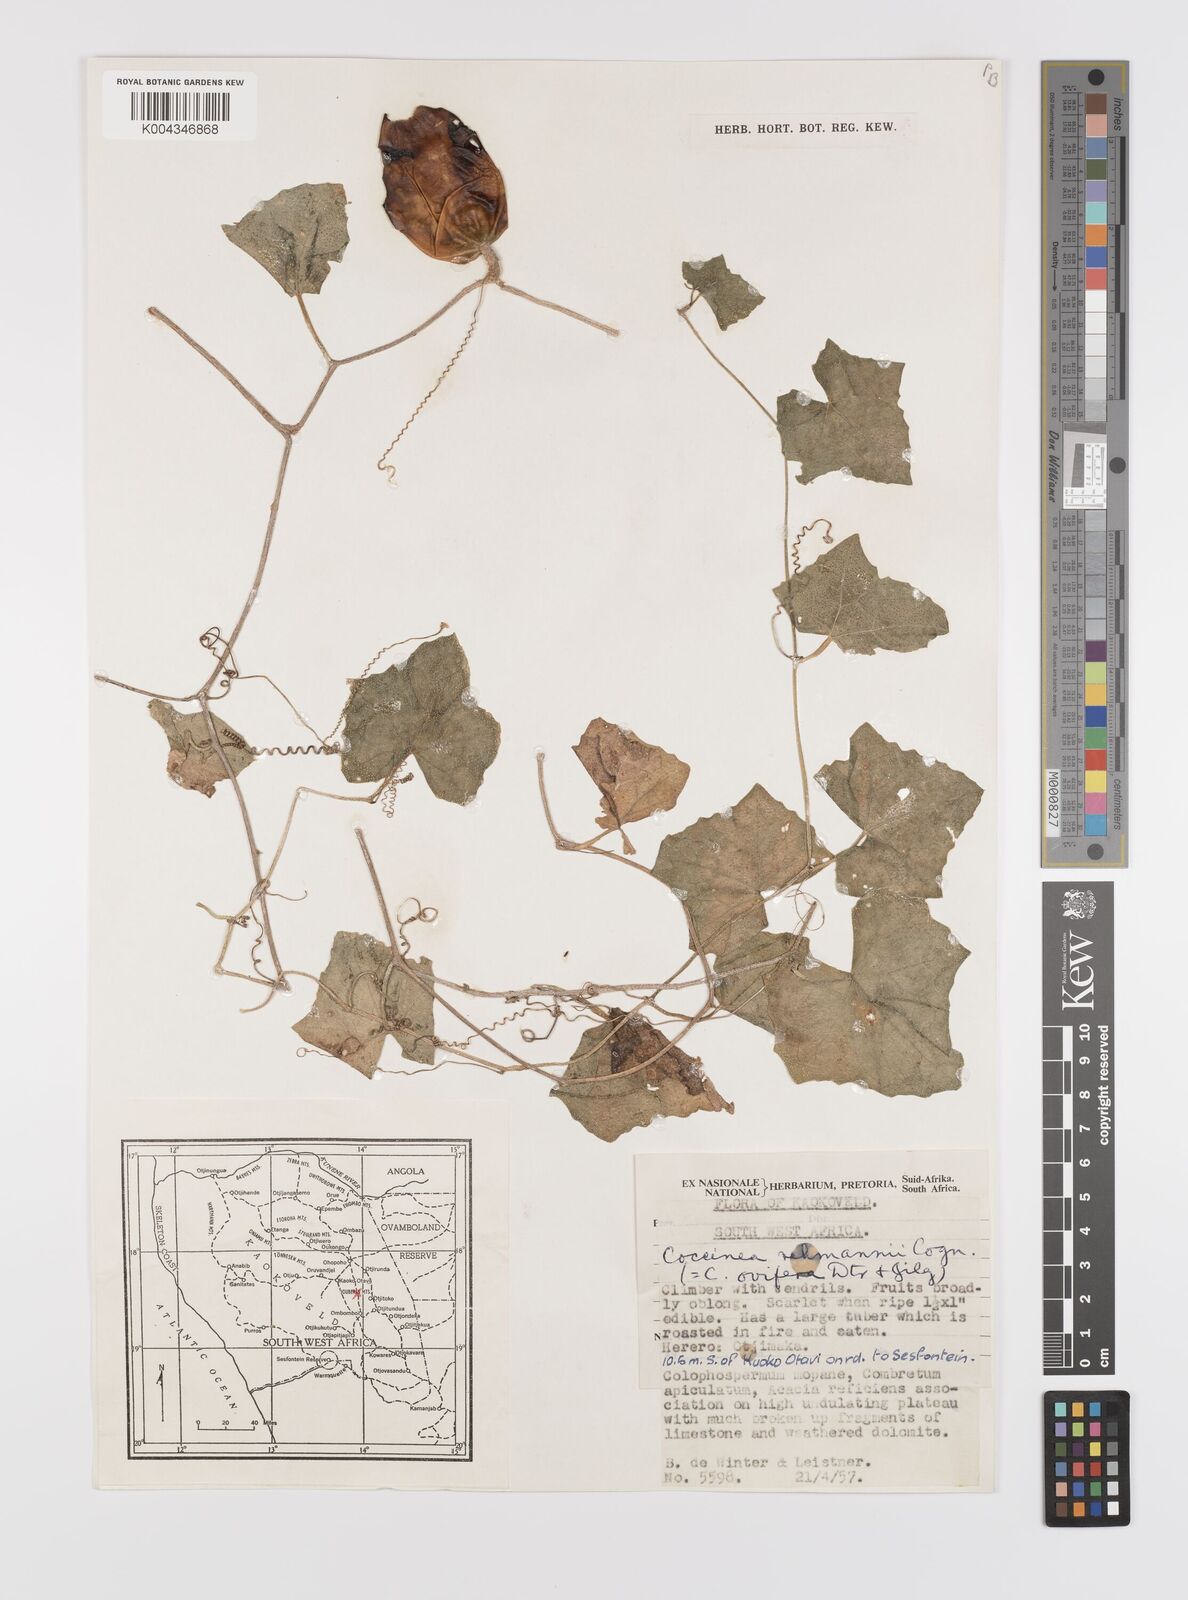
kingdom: Plantae
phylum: Tracheophyta
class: Magnoliopsida
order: Cucurbitales
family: Cucurbitaceae
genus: Coccinia
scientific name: Coccinia rehmannii
